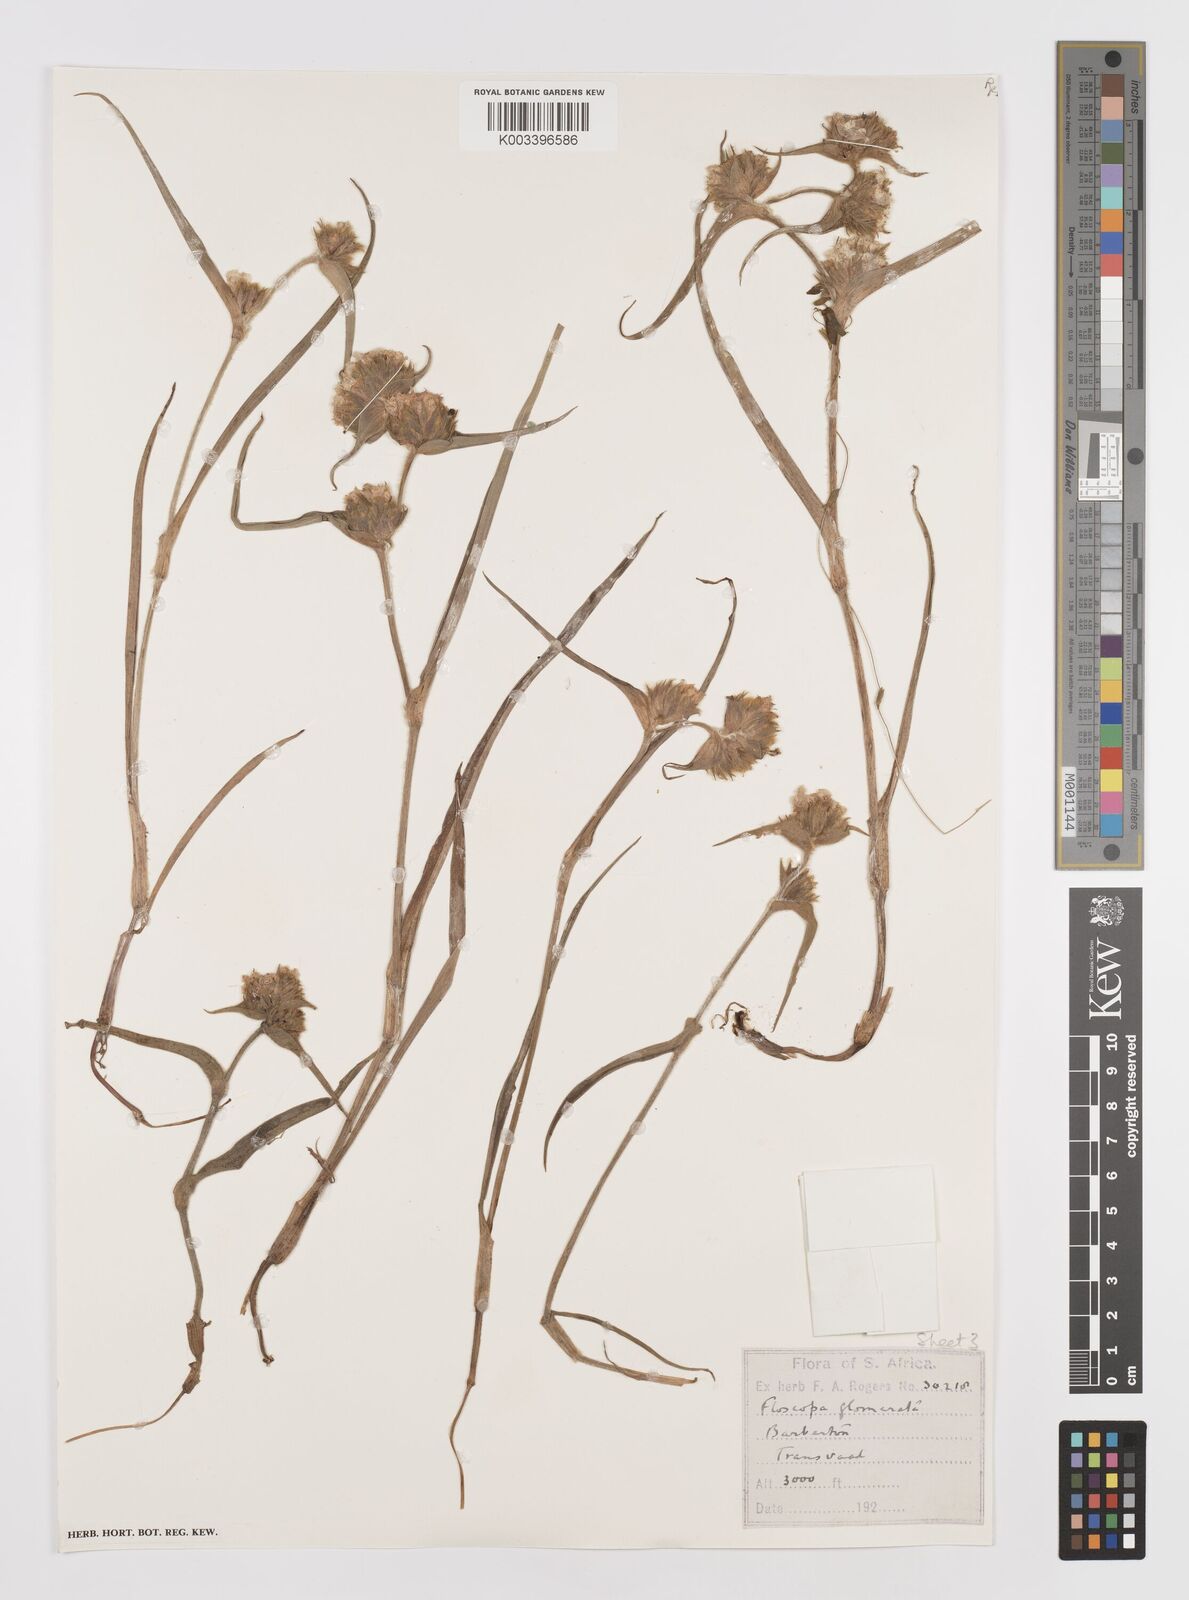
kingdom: Plantae
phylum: Tracheophyta
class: Liliopsida
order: Commelinales
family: Commelinaceae
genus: Cyanotis
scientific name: Cyanotis speciosa
